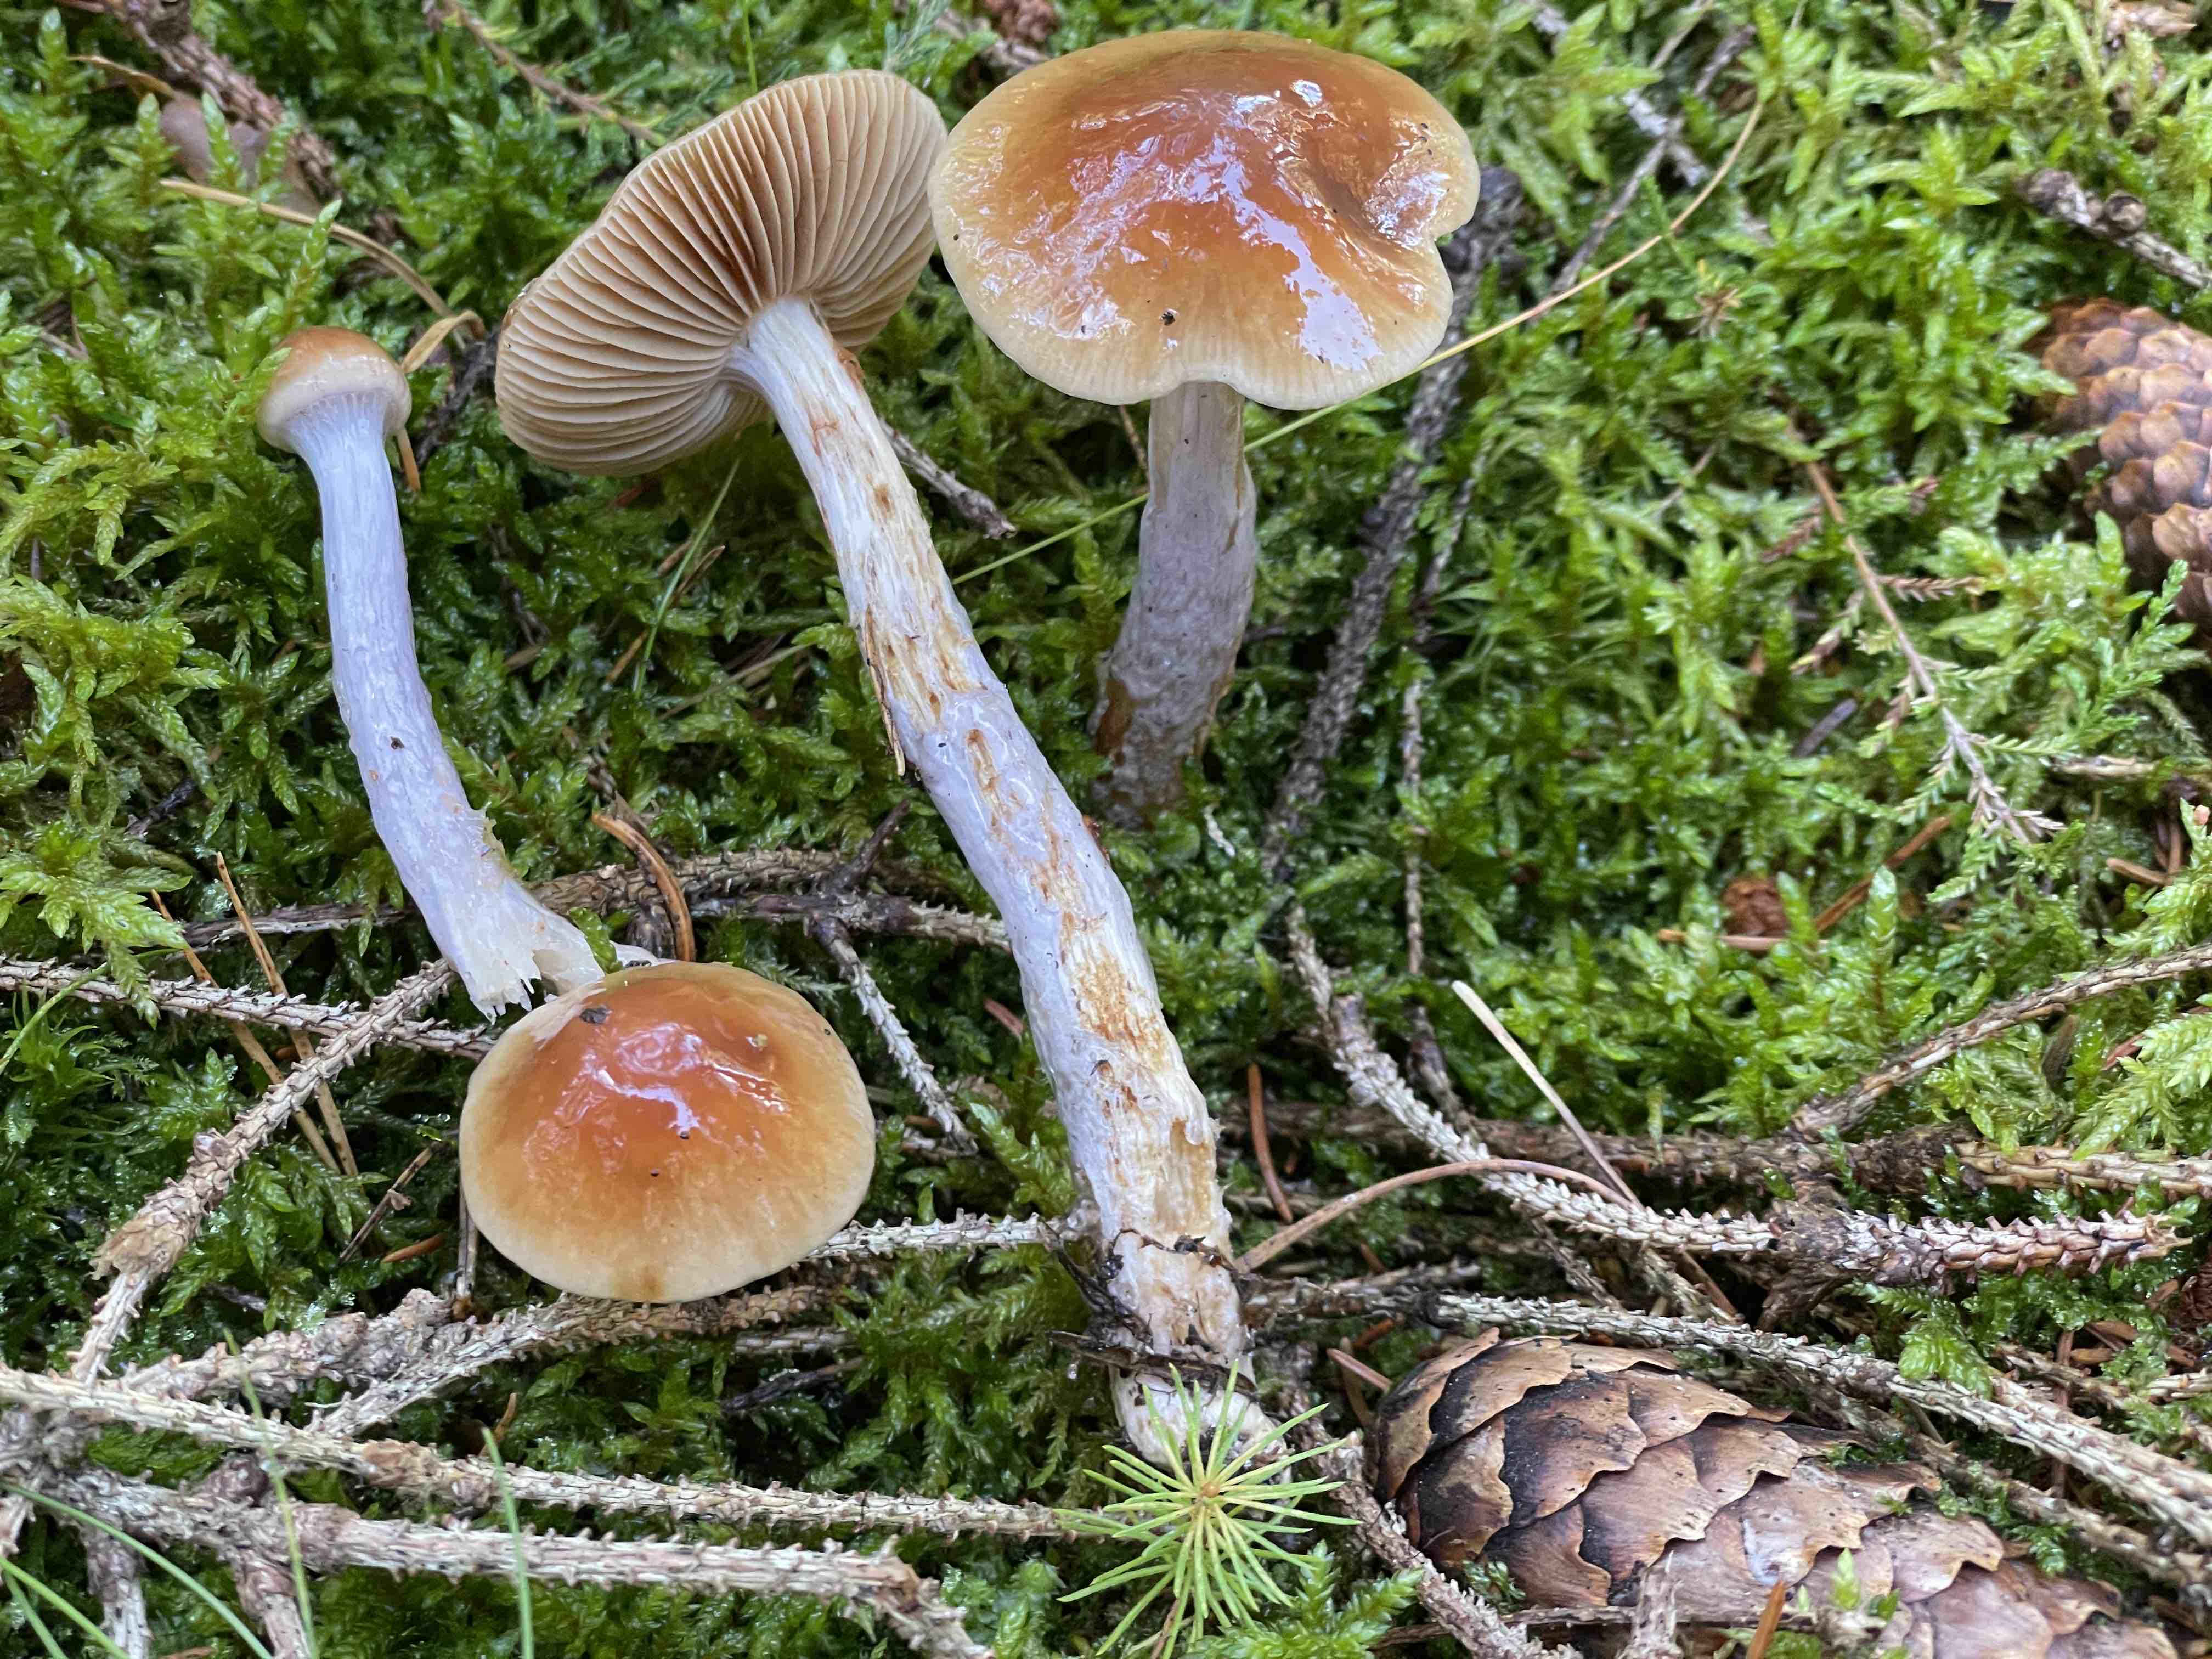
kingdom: Fungi
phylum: Basidiomycota
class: Agaricomycetes
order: Agaricales
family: Cortinariaceae
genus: Cortinarius
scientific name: Cortinarius
